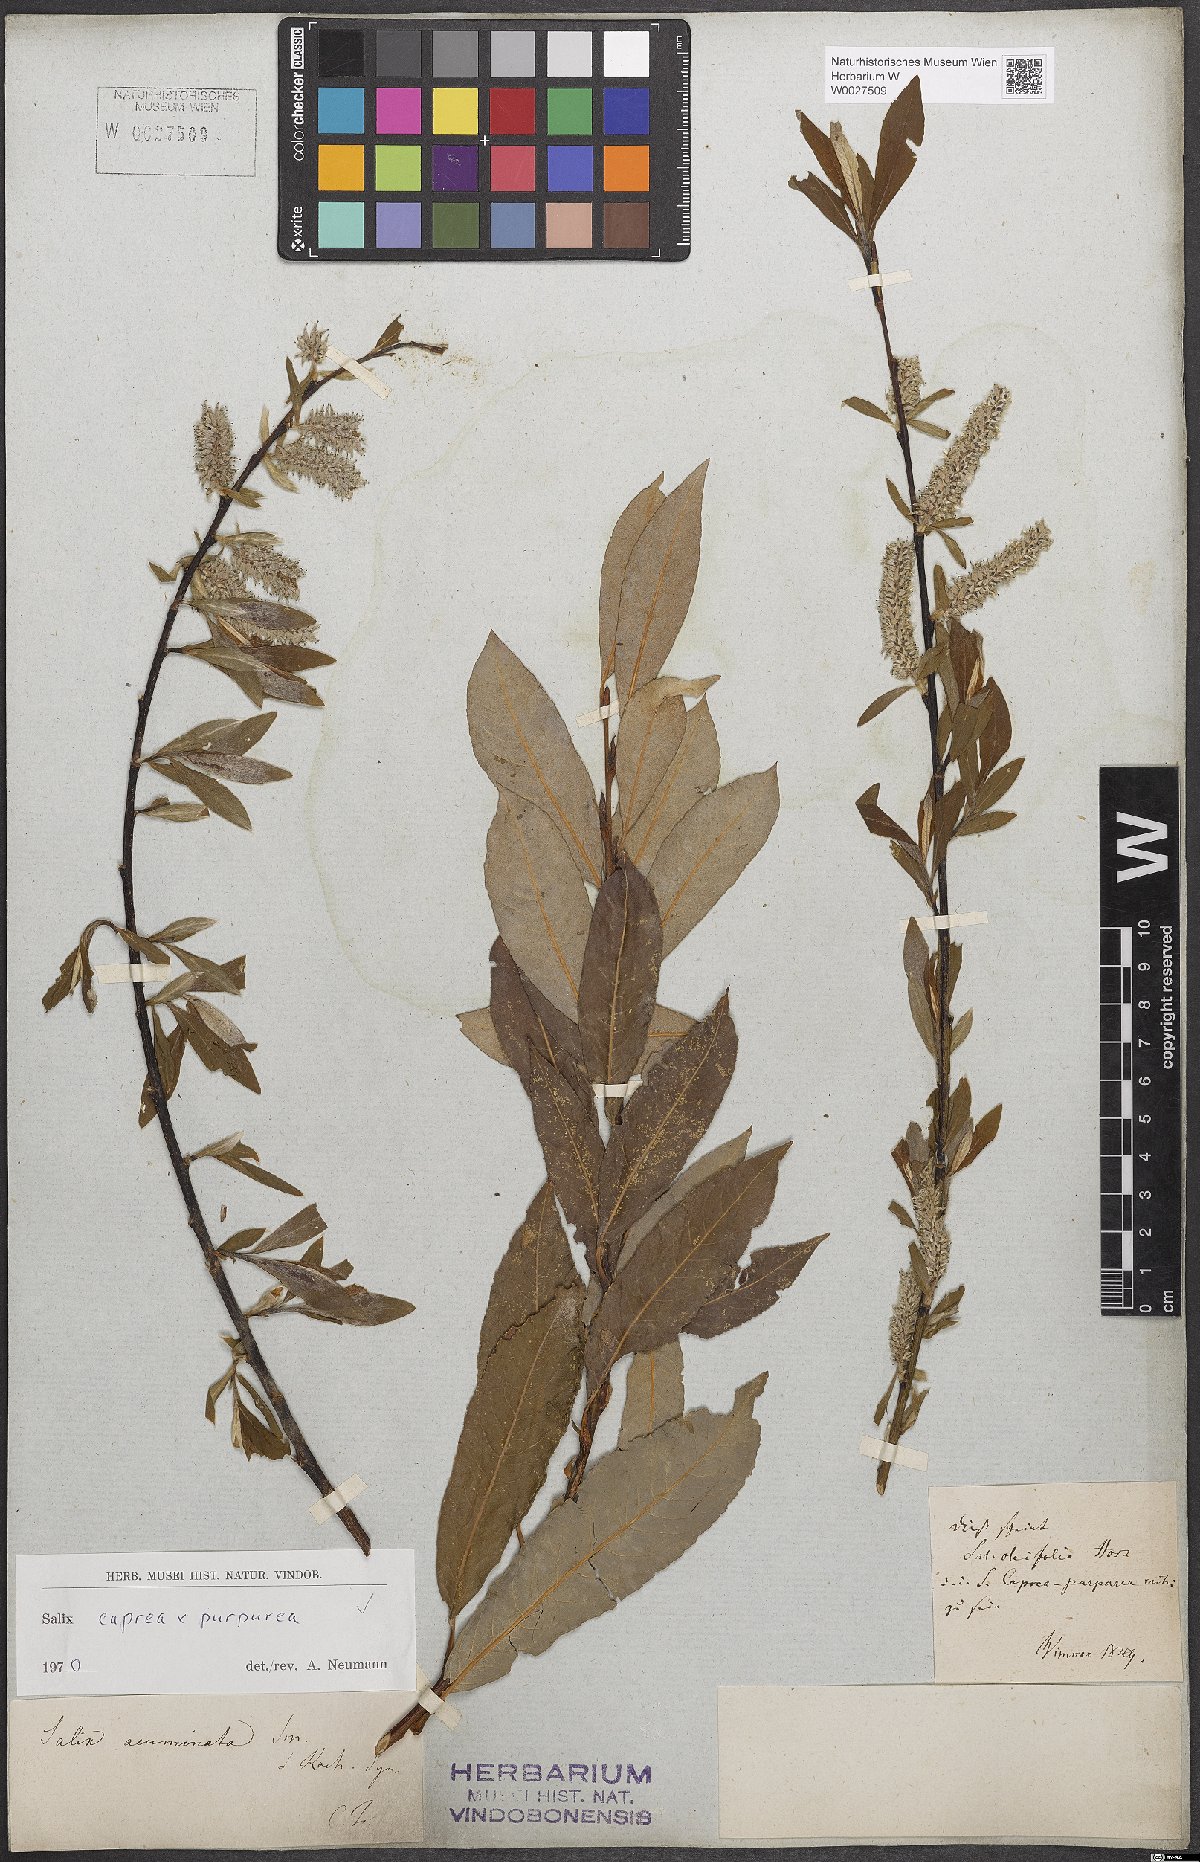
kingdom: Plantae
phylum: Tracheophyta
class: Magnoliopsida
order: Malpighiales
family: Salicaceae
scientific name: Salicaceae
